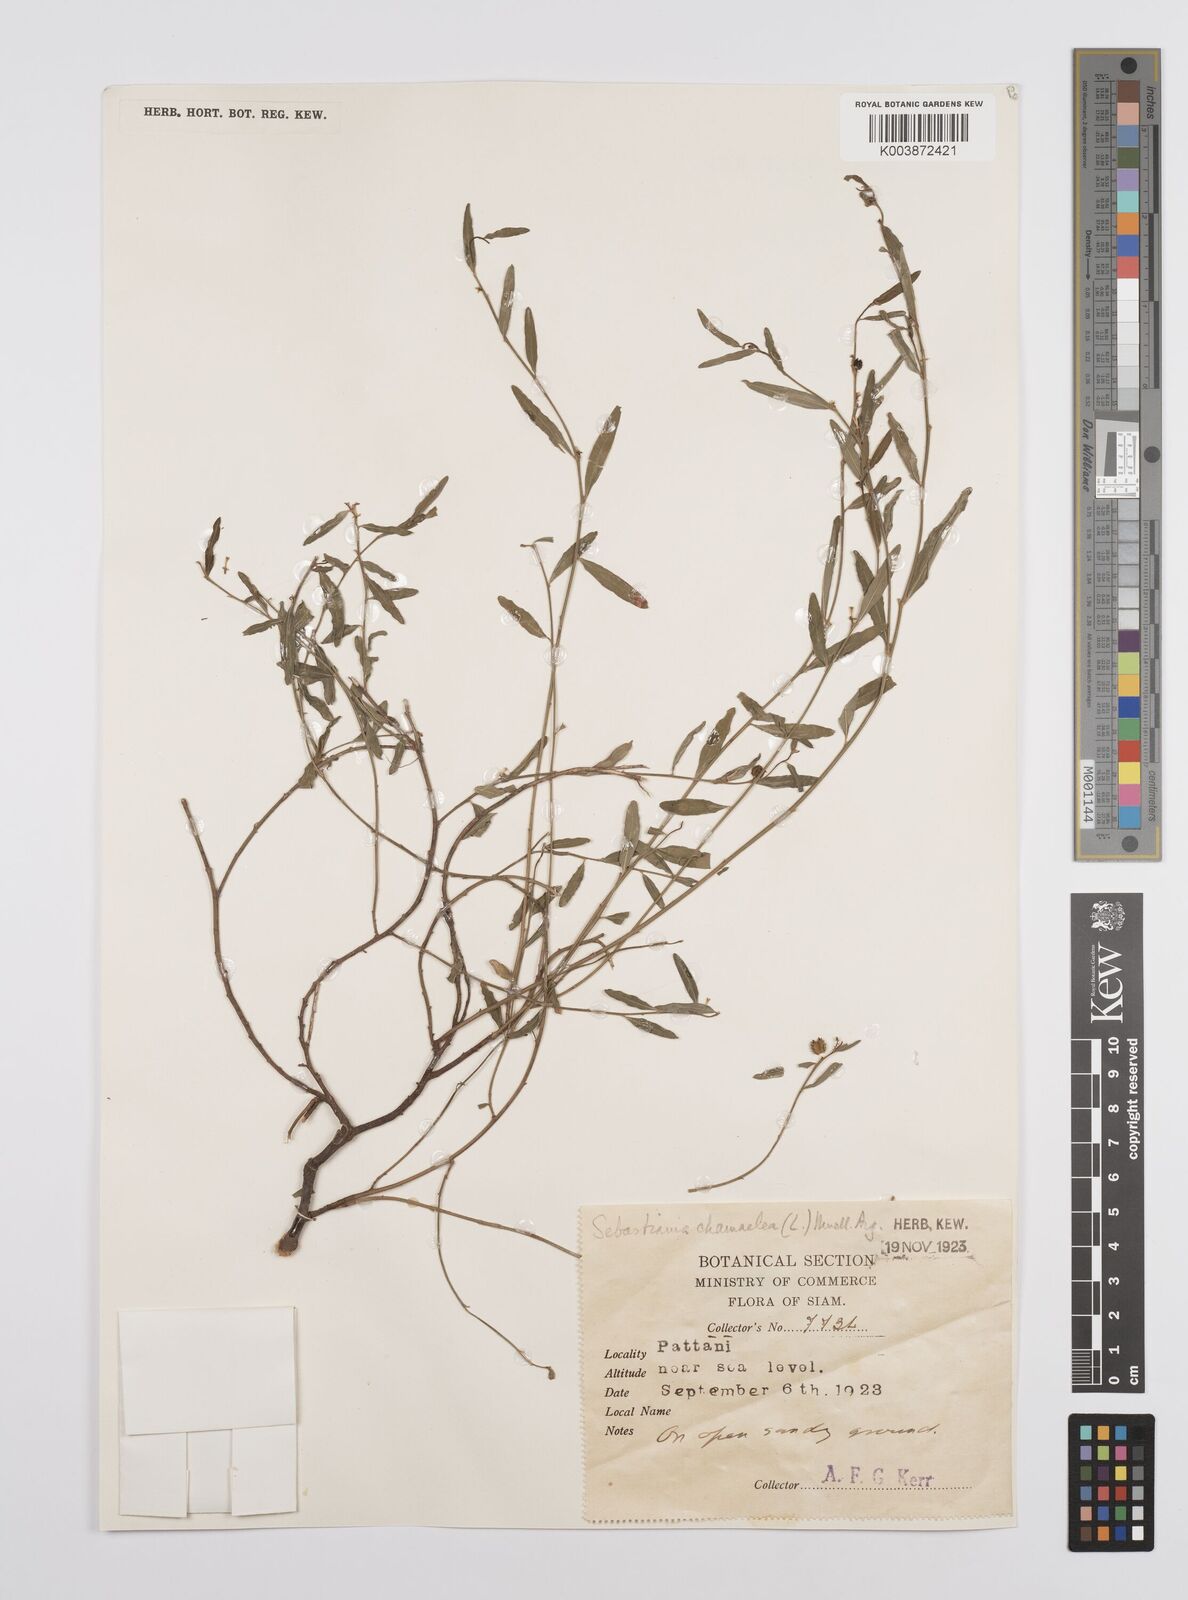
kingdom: Plantae
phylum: Tracheophyta
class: Magnoliopsida
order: Malpighiales
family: Euphorbiaceae
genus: Microstachys
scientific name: Microstachys chamaelea
